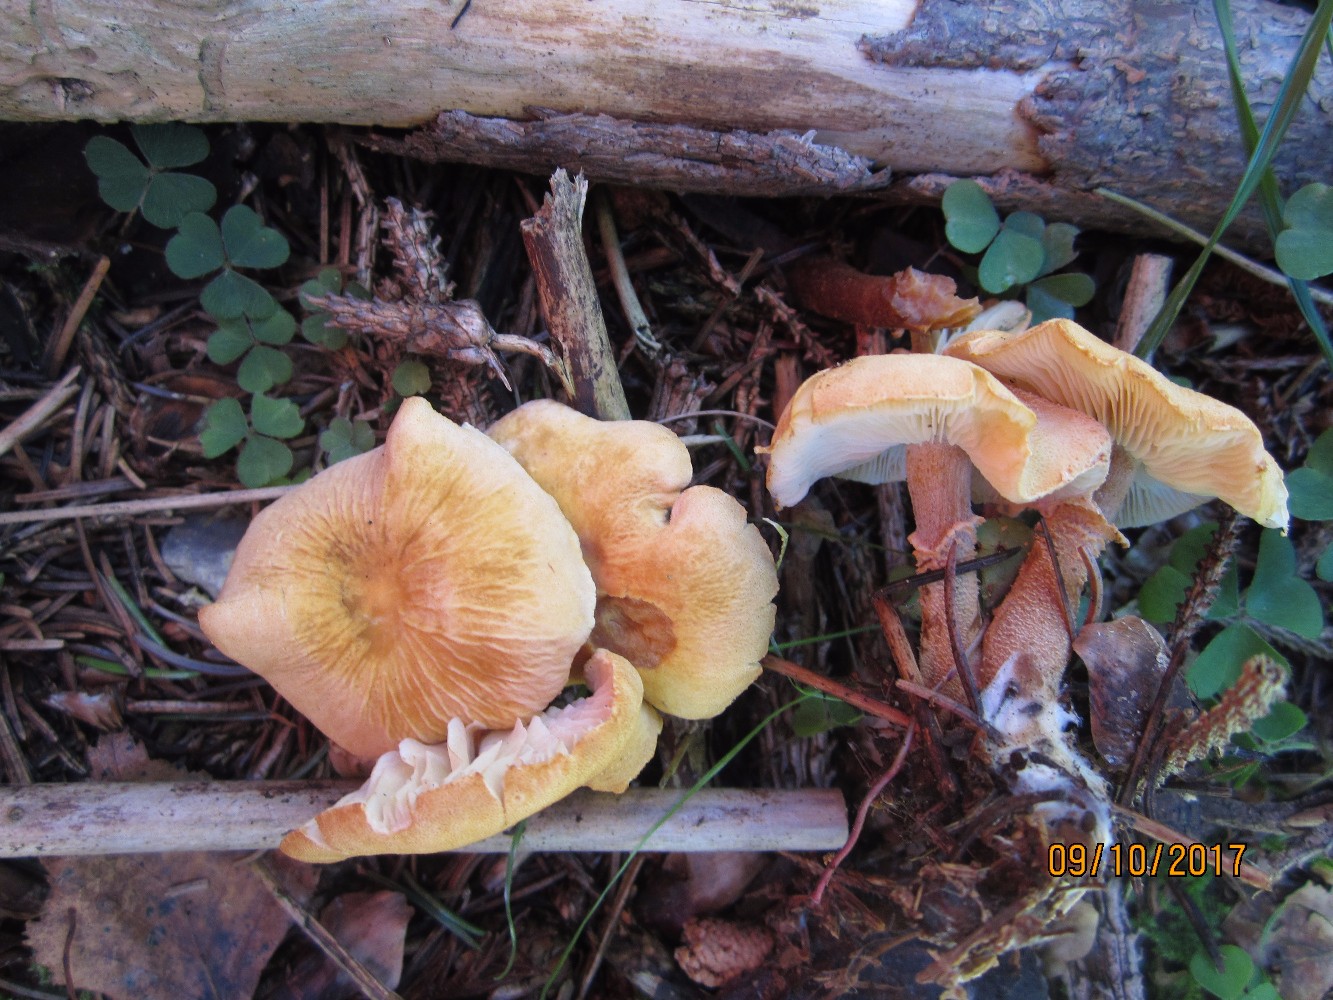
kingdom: Fungi
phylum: Basidiomycota
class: Agaricomycetes
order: Agaricales
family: Tricholomataceae
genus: Cystoderma
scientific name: Cystoderma amianthinum
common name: okkergul grynhat
